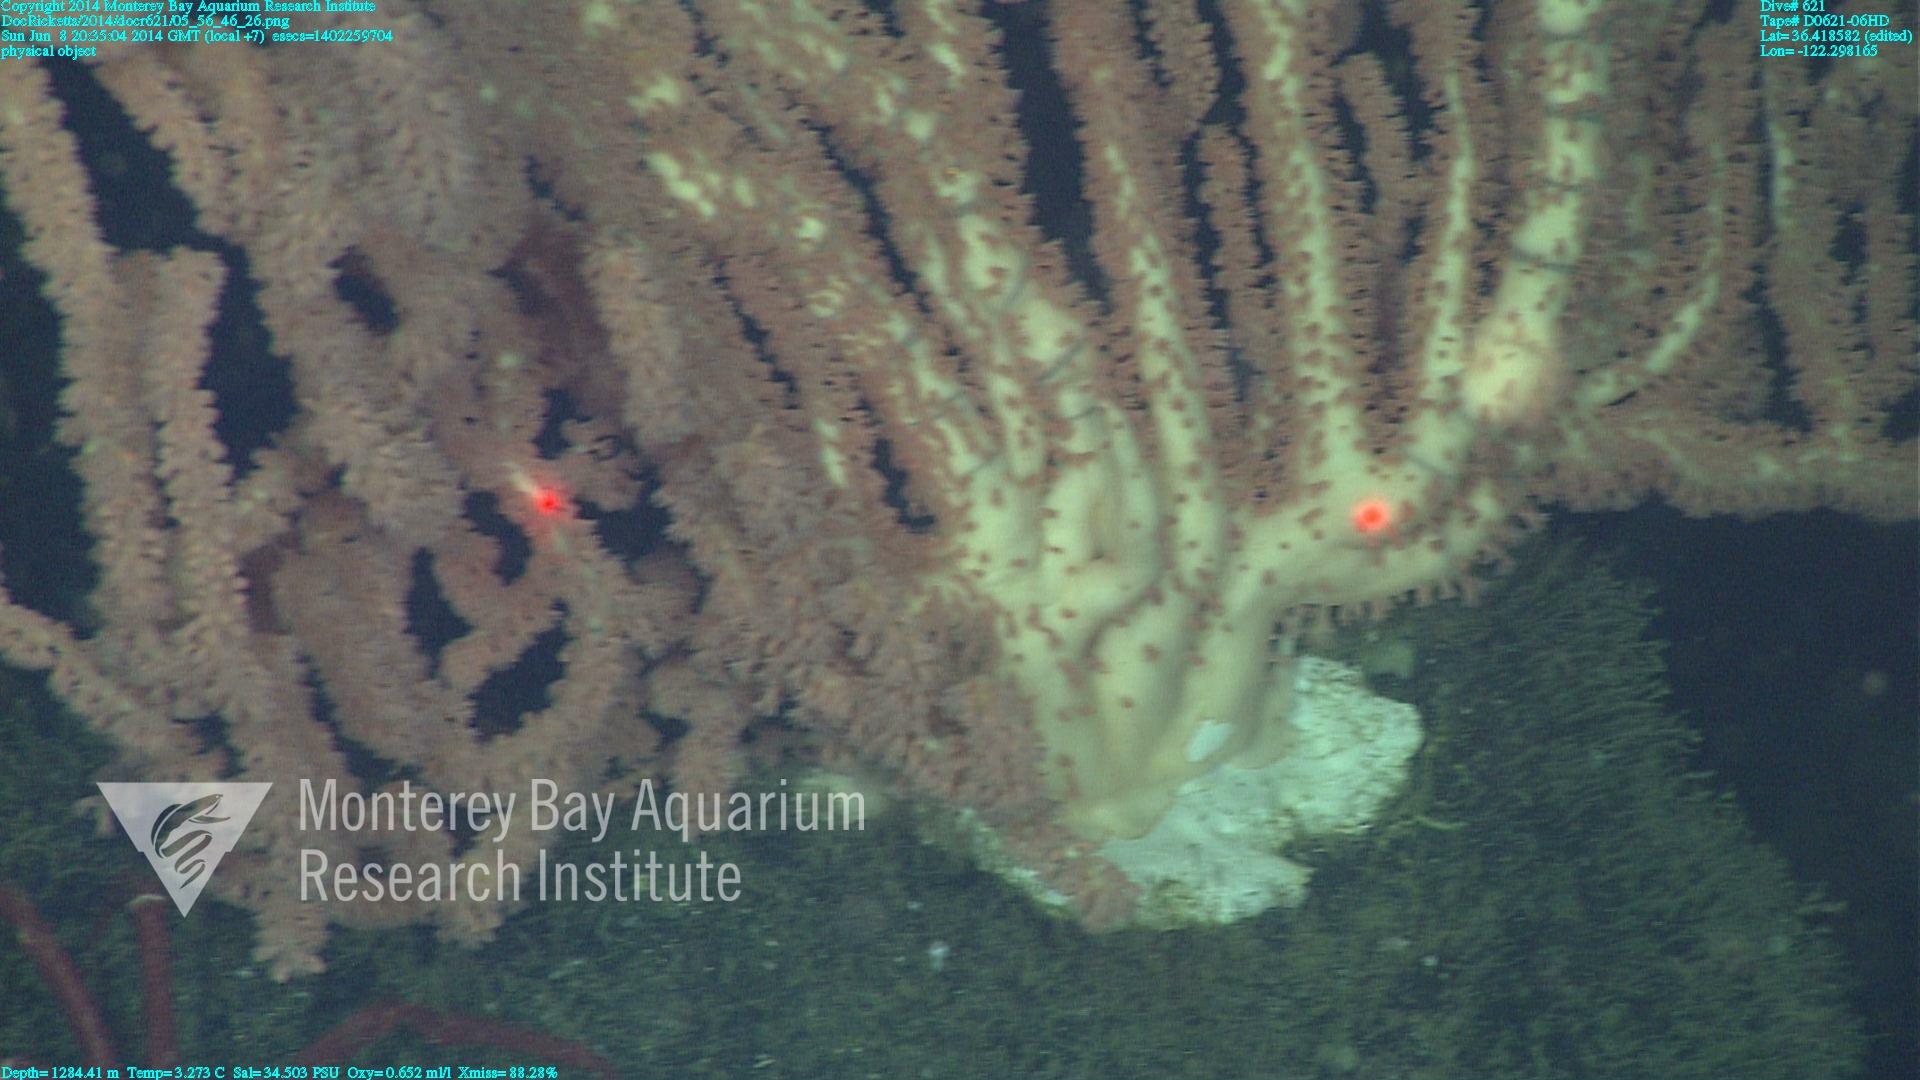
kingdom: Animalia
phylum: Cnidaria
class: Anthozoa
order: Scleralcyonacea
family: Keratoisididae
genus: Keratoisis
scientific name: Keratoisis
